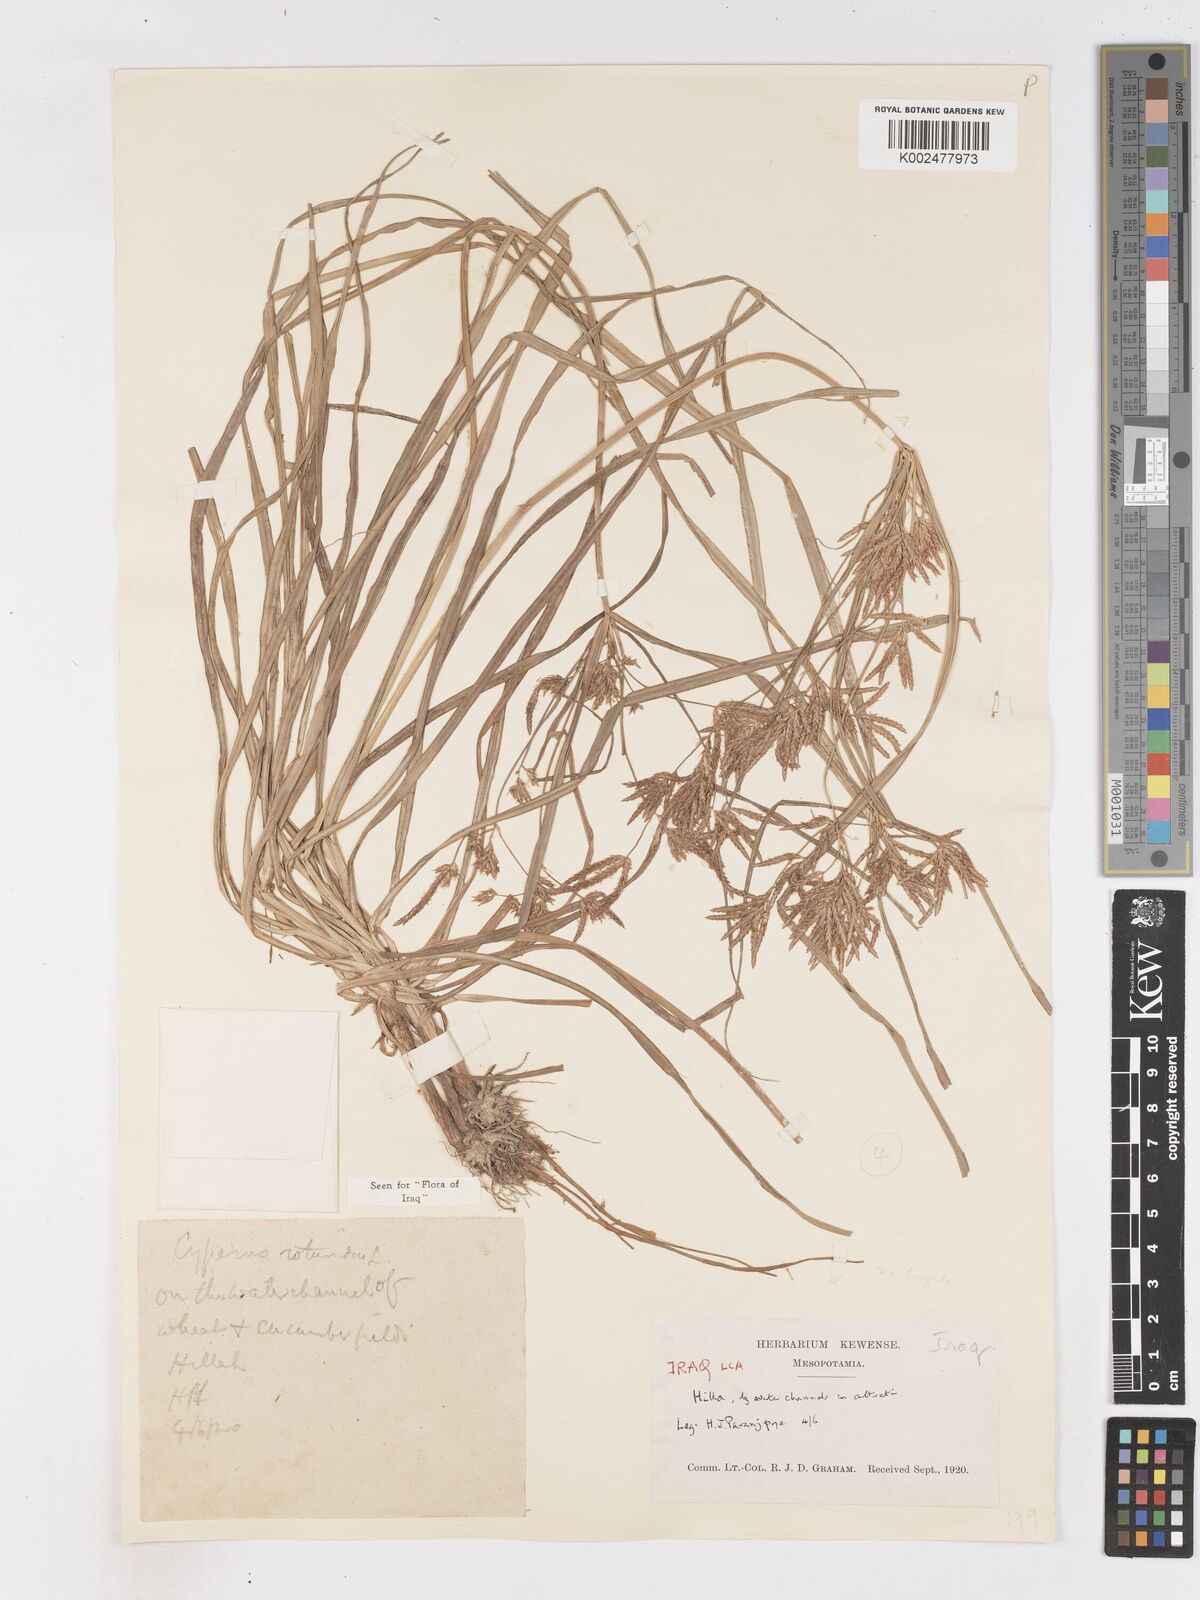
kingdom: Plantae
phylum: Tracheophyta
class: Liliopsida
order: Poales
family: Cyperaceae
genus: Cyperus
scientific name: Cyperus rotundus
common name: Nutgrass
